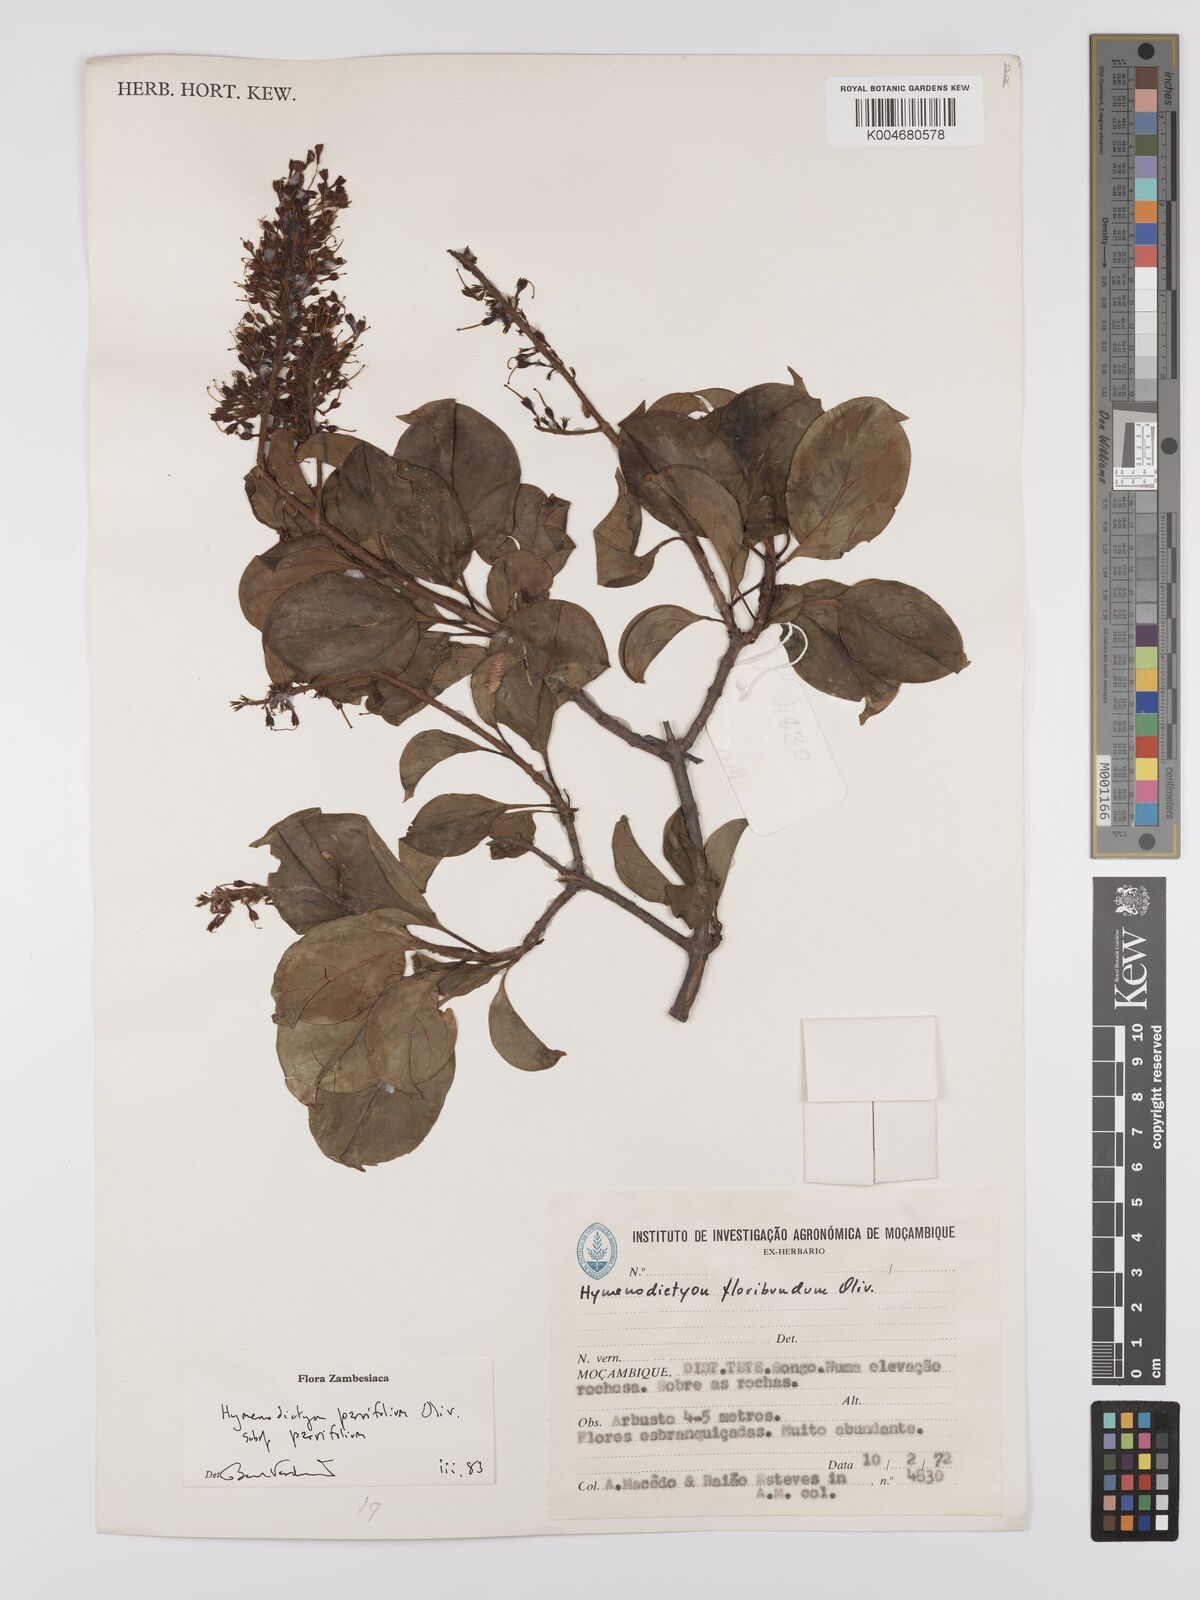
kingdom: Plantae
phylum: Tracheophyta
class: Magnoliopsida
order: Gentianales
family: Rubiaceae
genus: Hymenodictyon
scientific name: Hymenodictyon parvifolium
